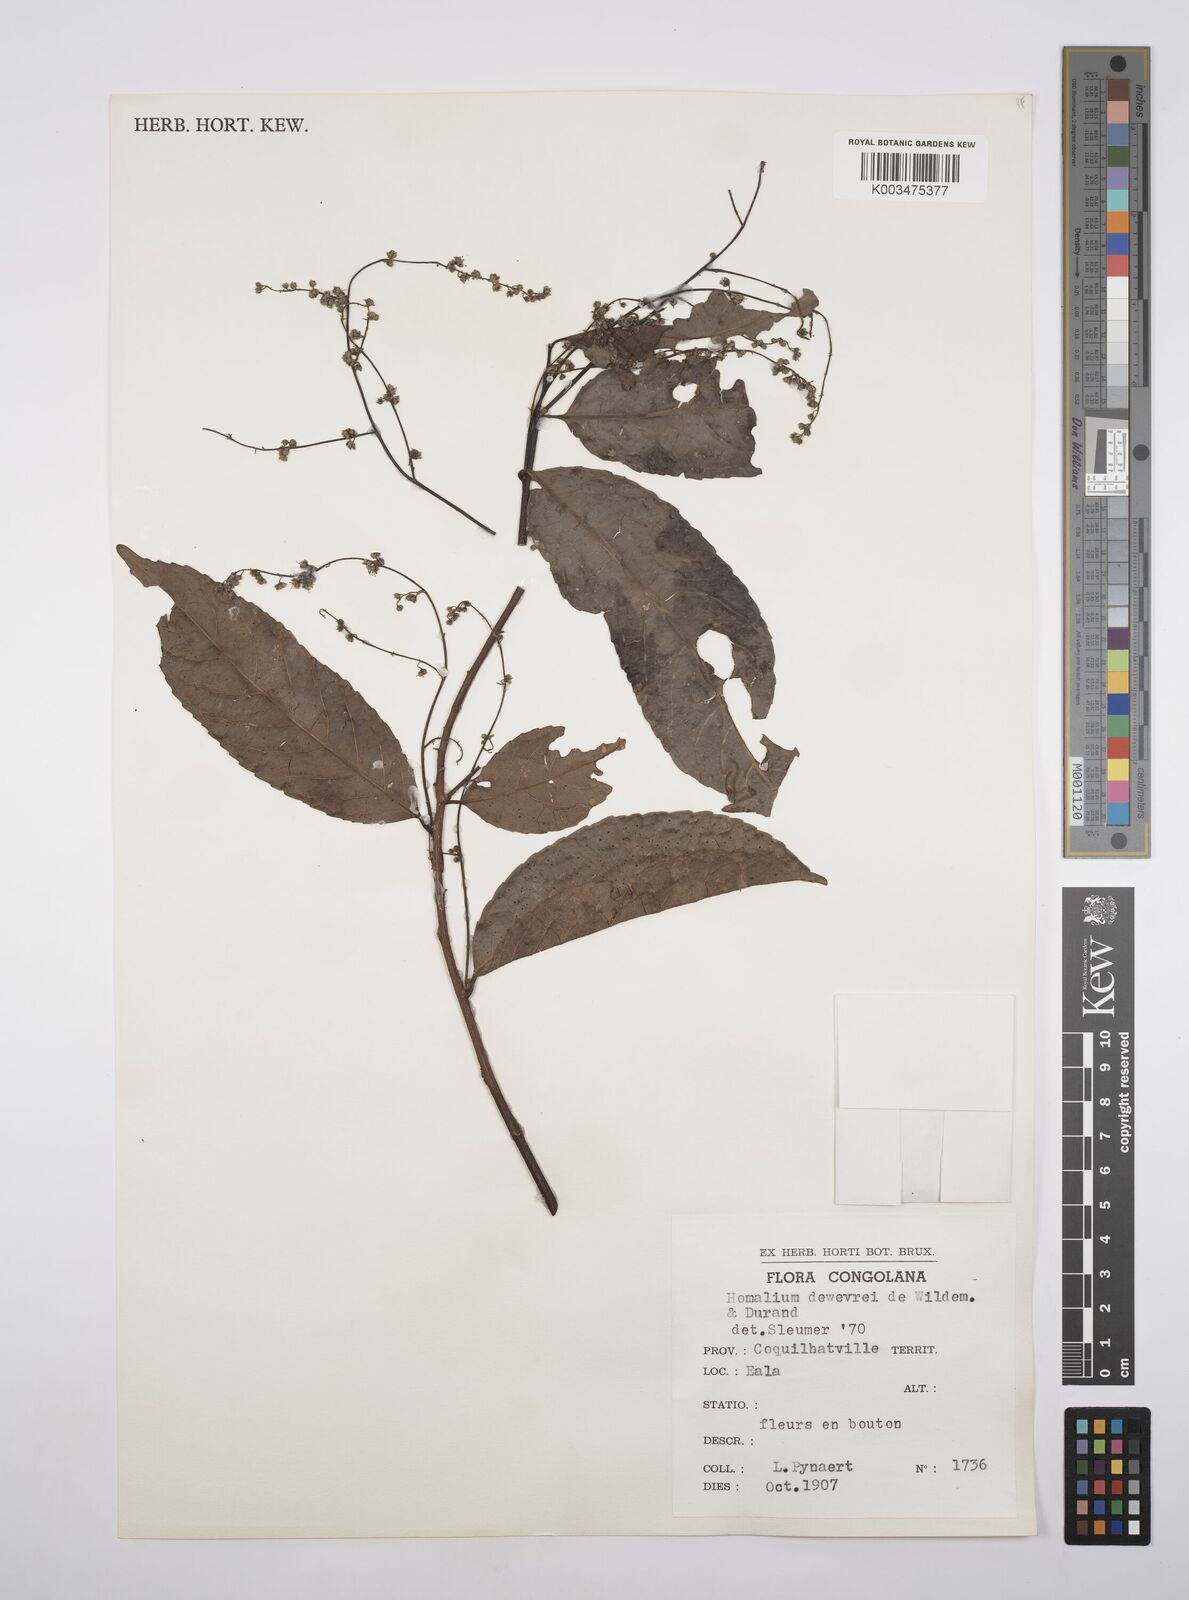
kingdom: Plantae
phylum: Tracheophyta
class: Magnoliopsida
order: Malpighiales
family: Salicaceae
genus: Homalium
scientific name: Homalium dewevrei
